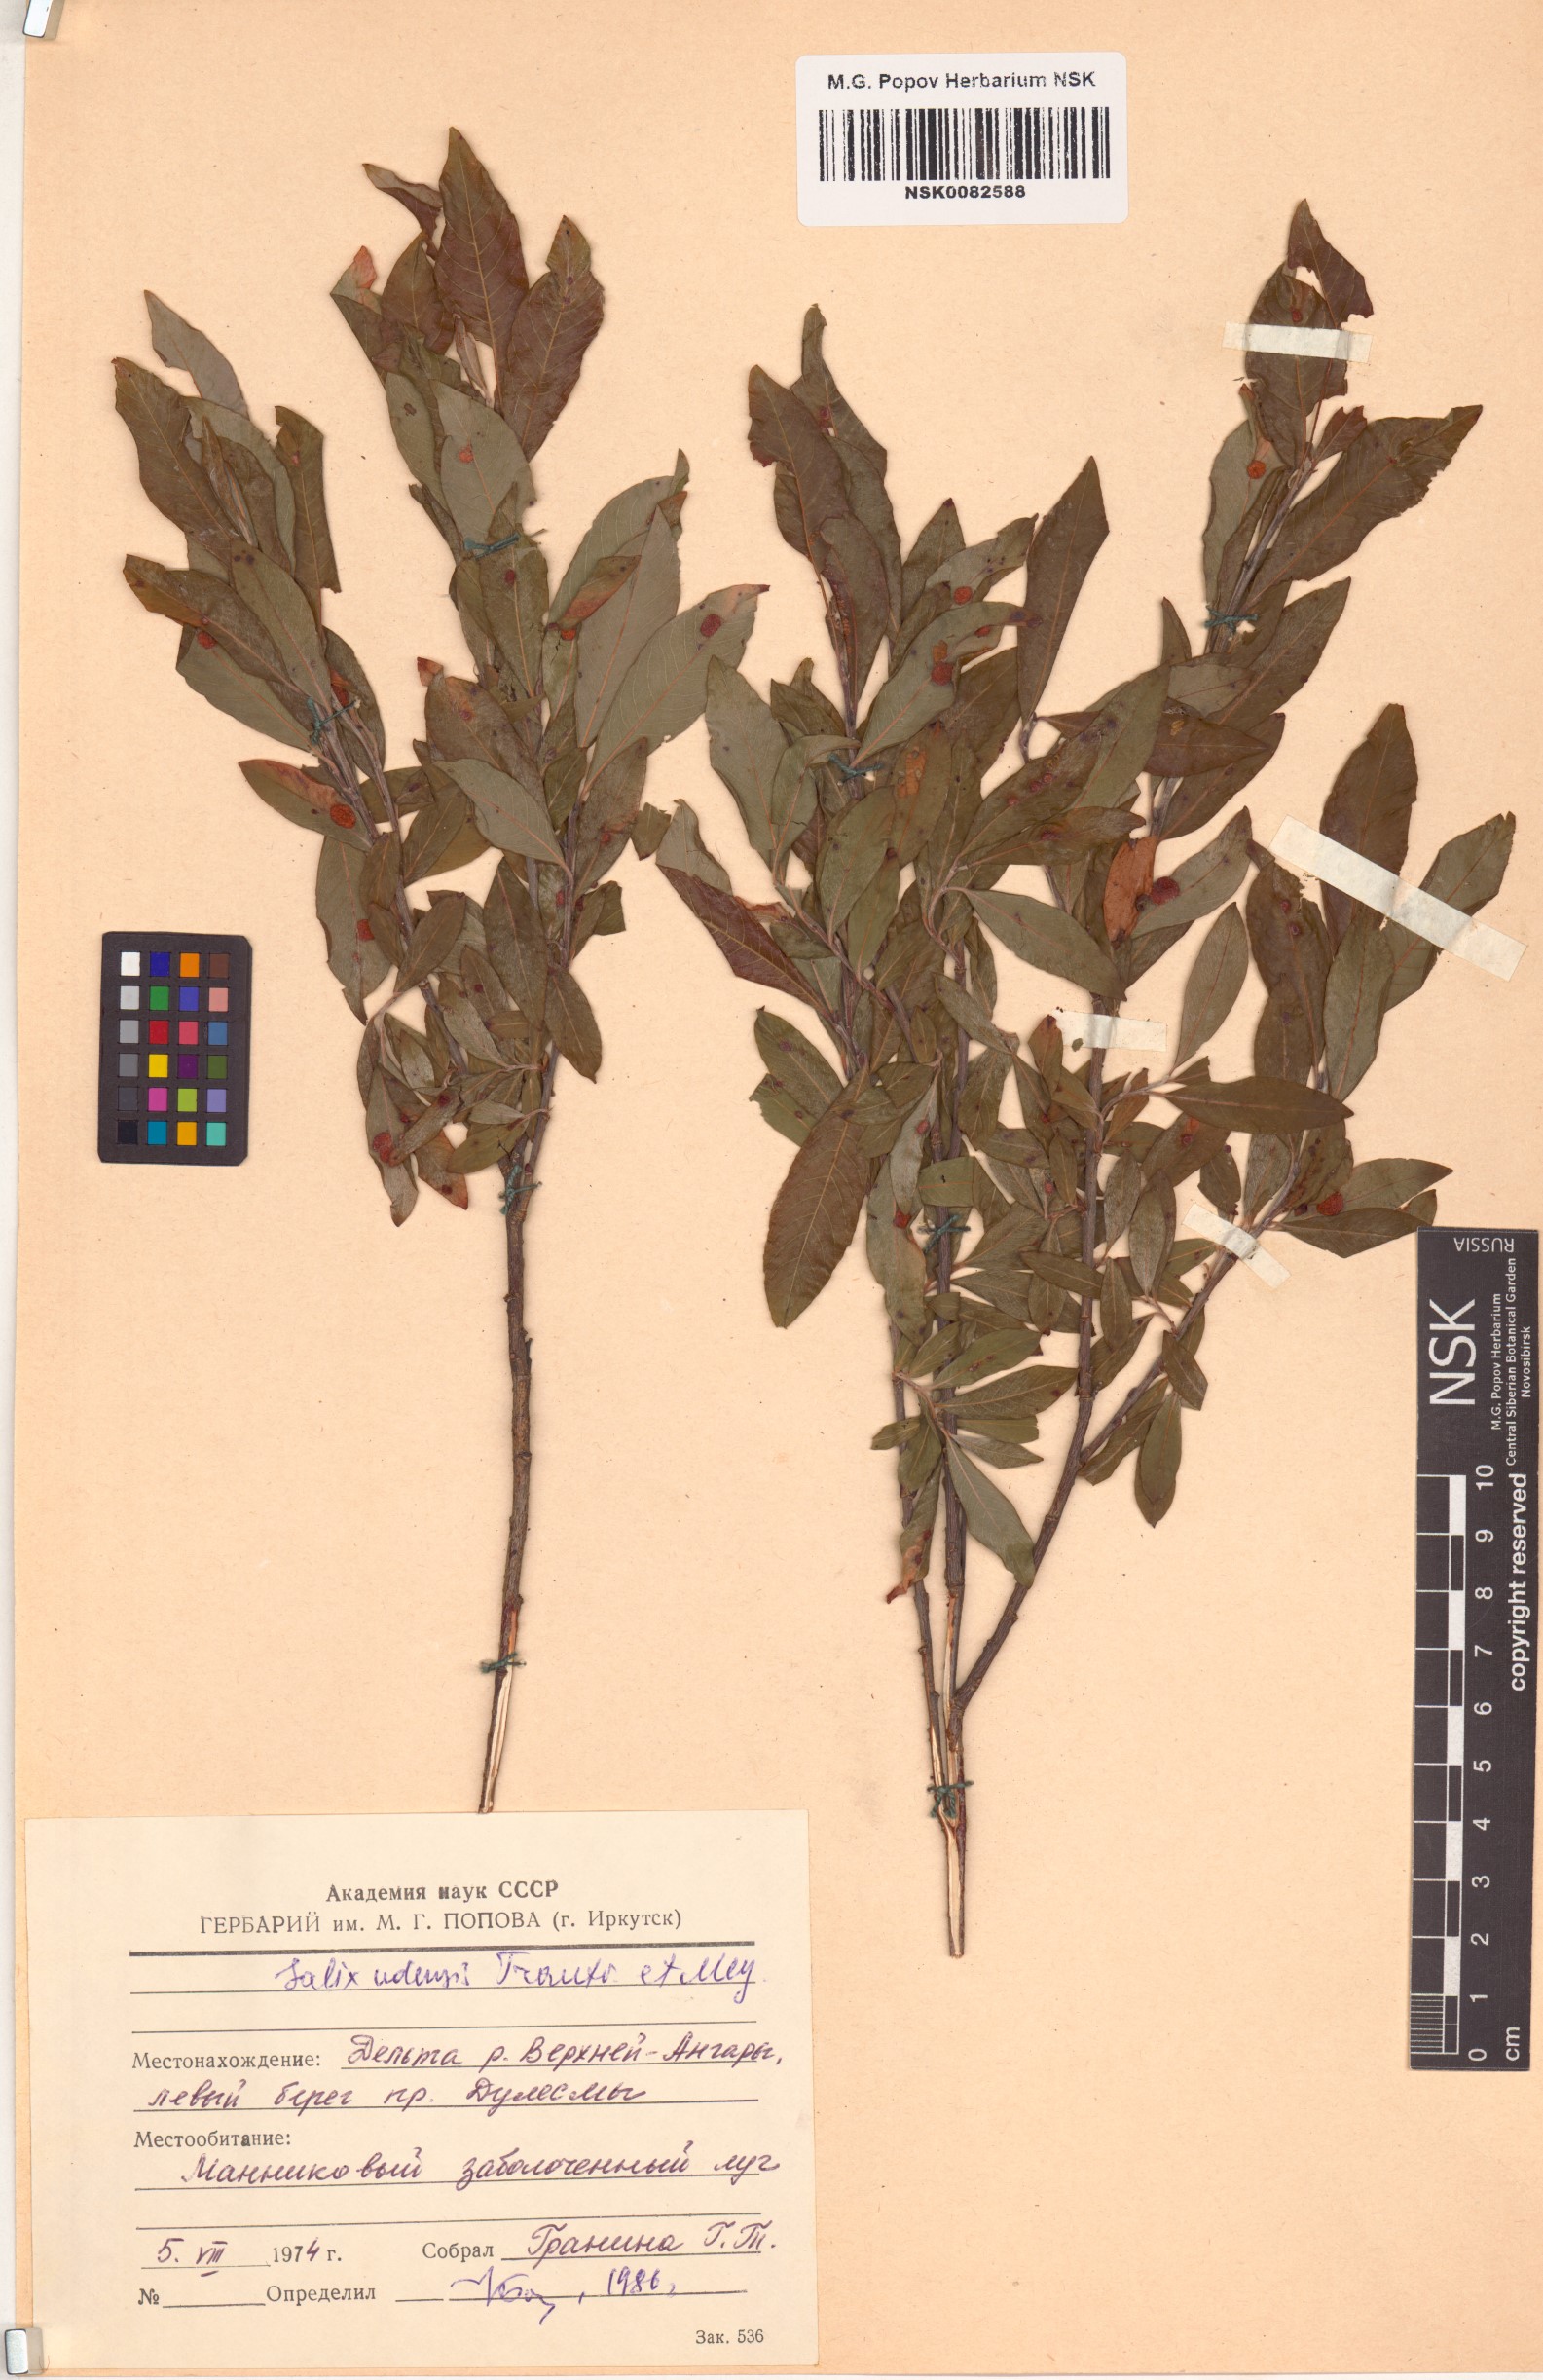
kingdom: Plantae
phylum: Tracheophyta
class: Magnoliopsida
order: Malpighiales
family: Salicaceae
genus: Salix
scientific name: Salix udensis
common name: Sachalin willow
